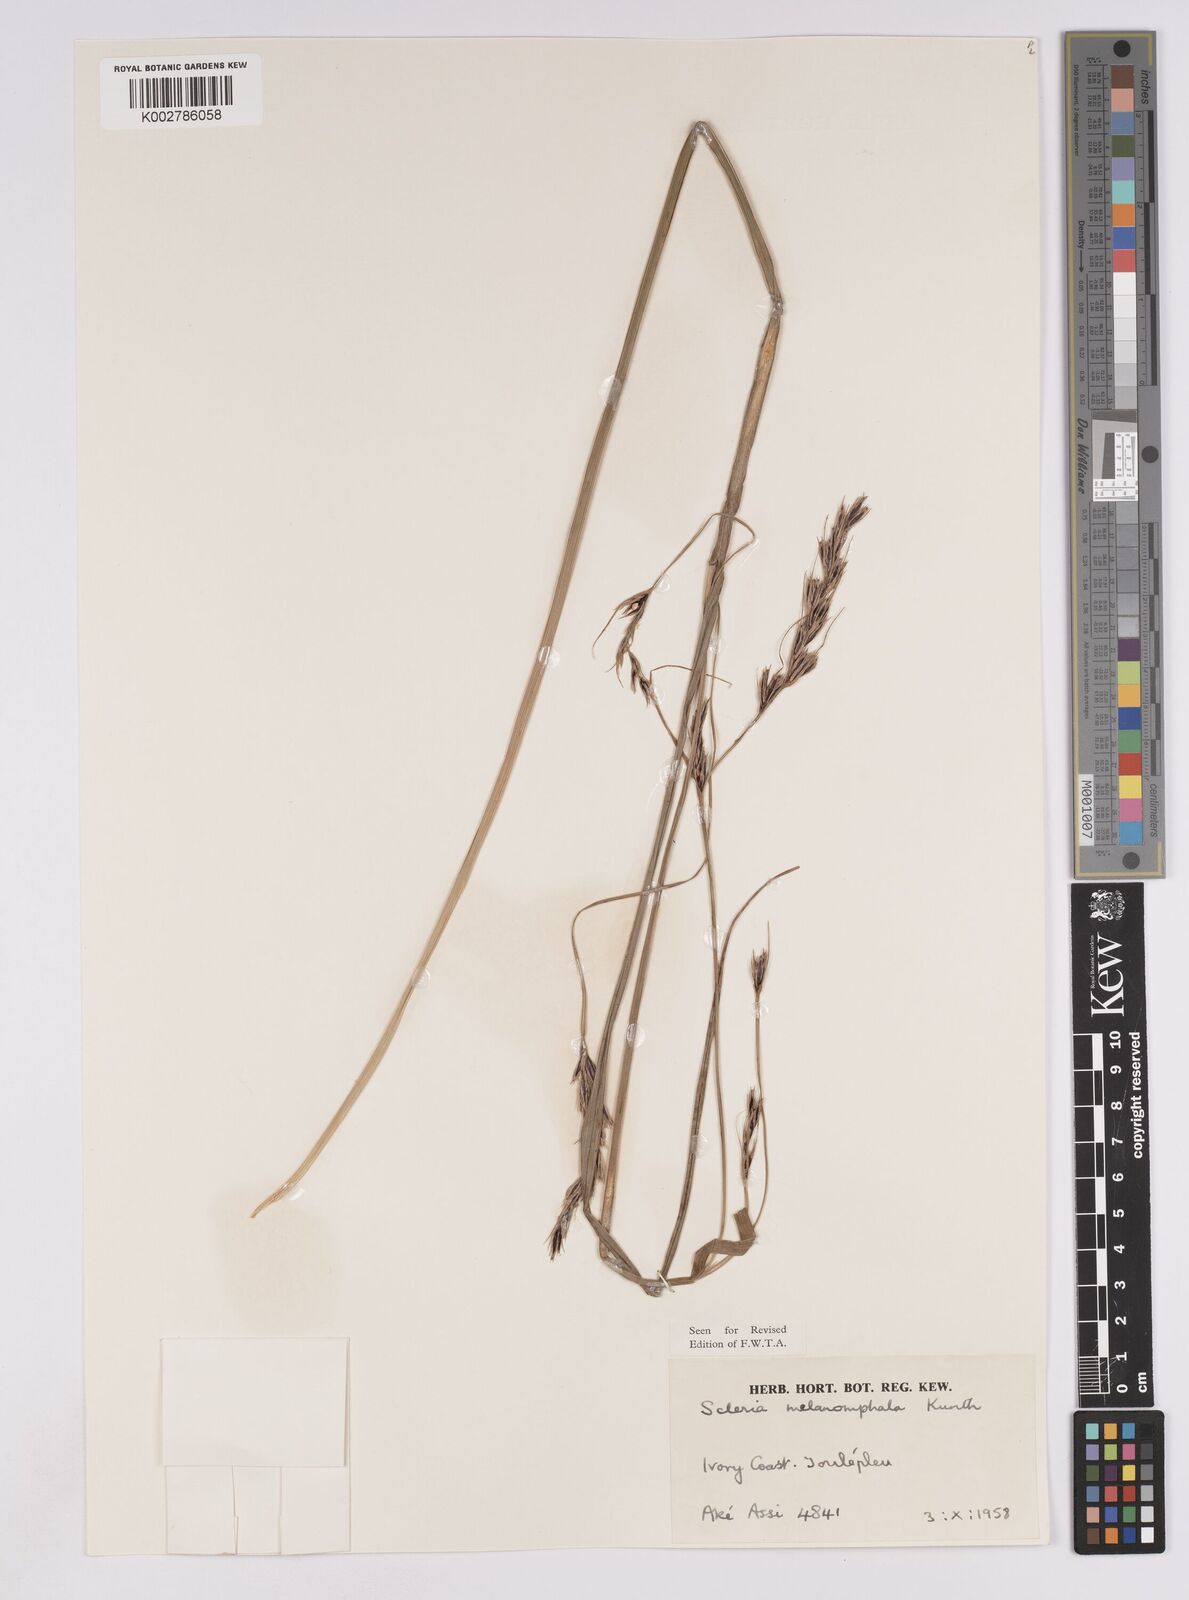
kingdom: Plantae
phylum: Tracheophyta
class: Liliopsida
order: Poales
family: Cyperaceae
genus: Scleria
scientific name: Scleria melanomphala
